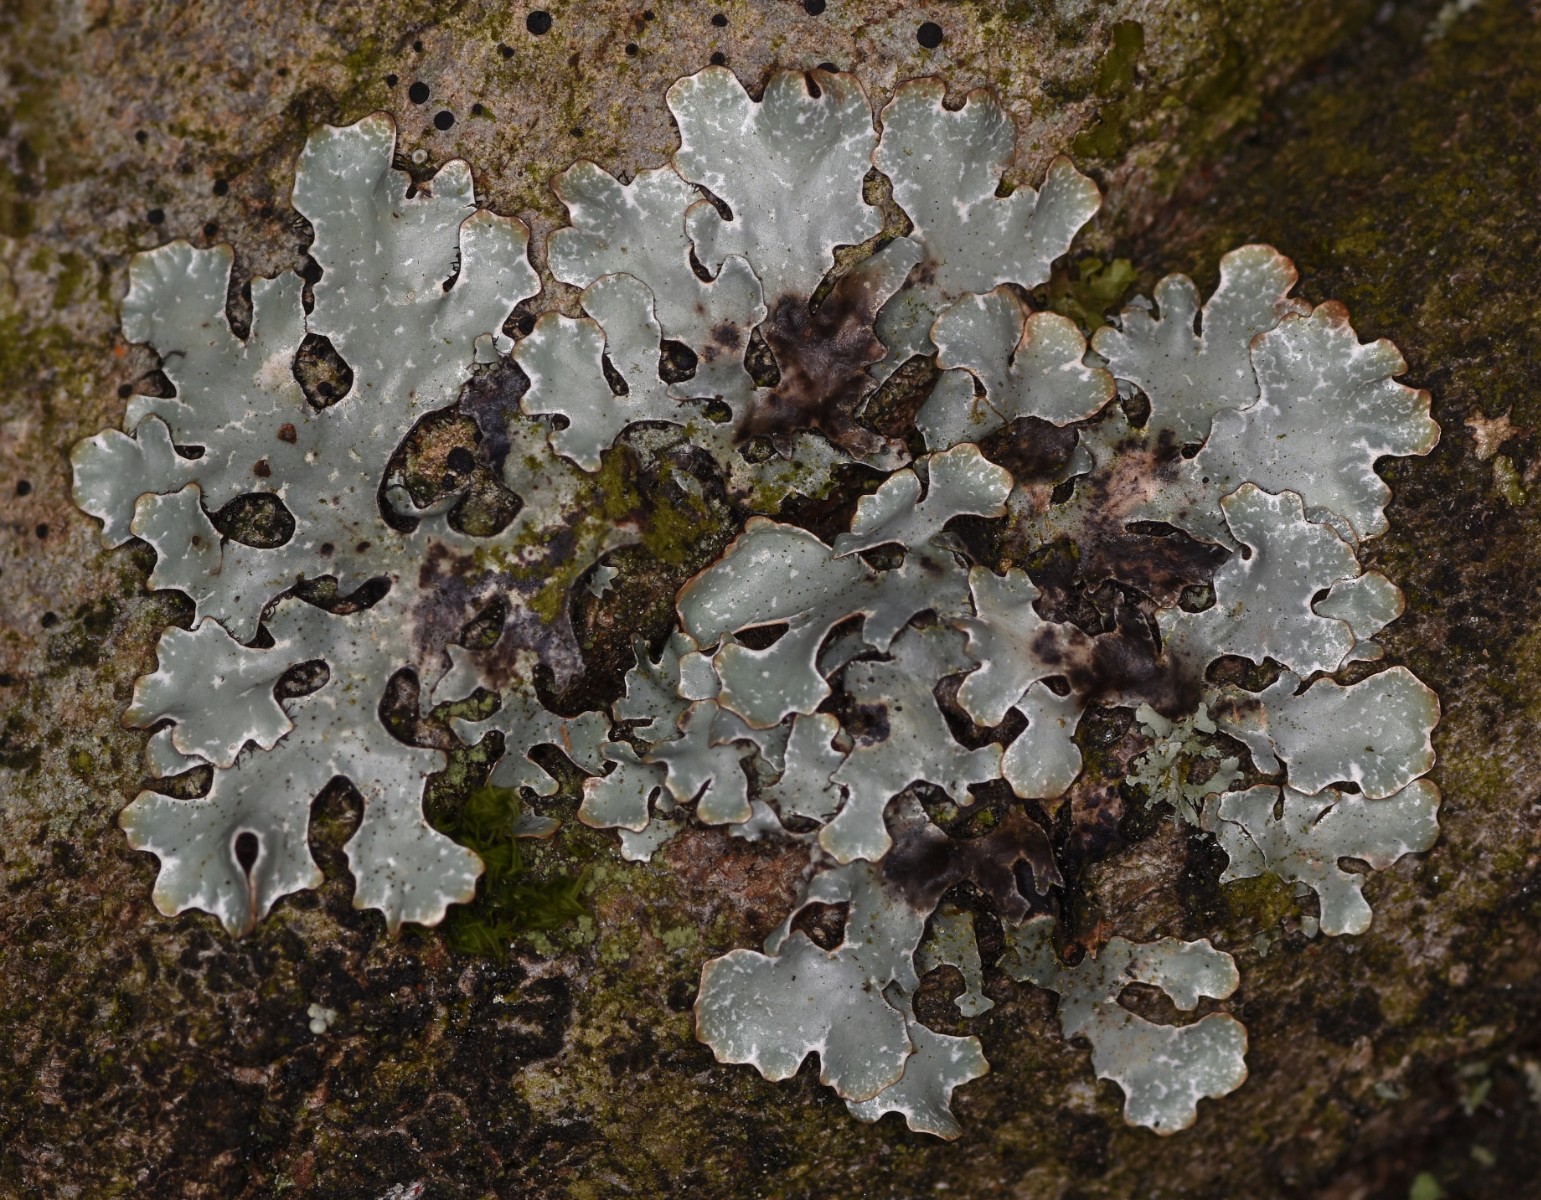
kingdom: Fungi
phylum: Ascomycota
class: Lecanoromycetes
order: Lecanorales
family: Parmeliaceae
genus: Parmelia
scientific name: Parmelia sulcata
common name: rynket skållav
